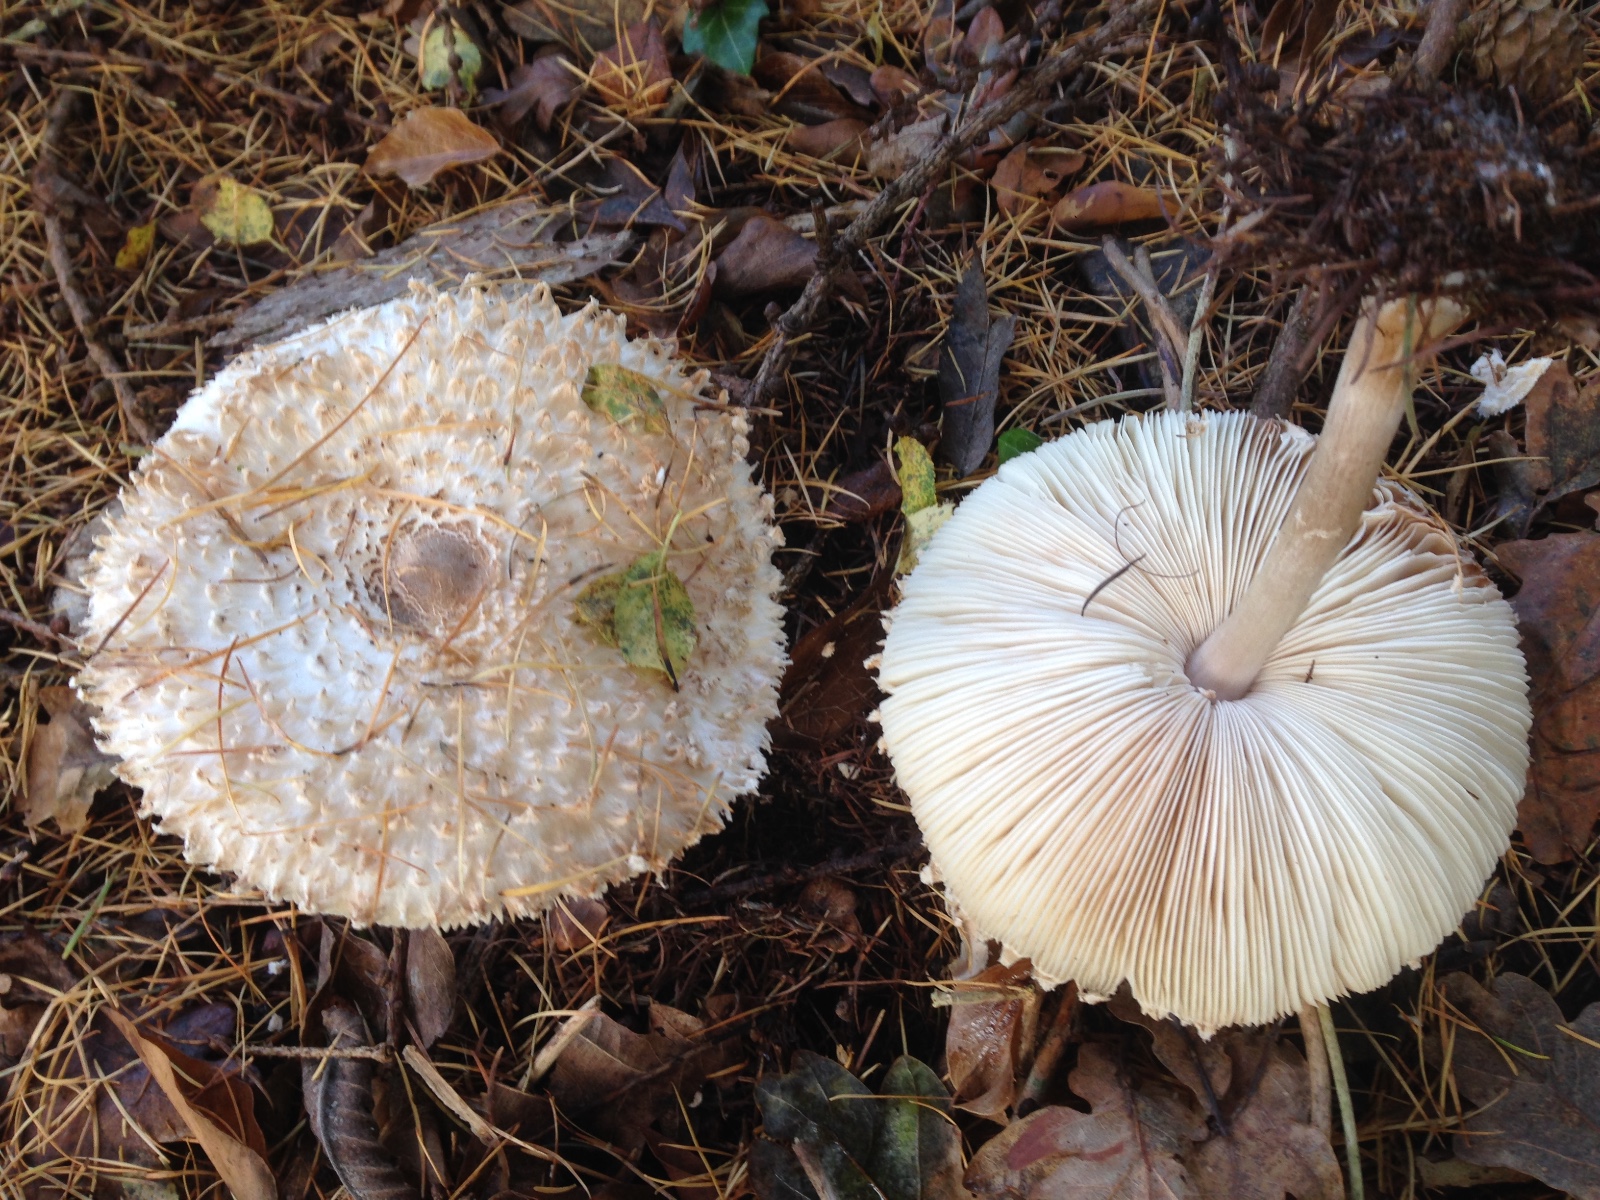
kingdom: Fungi
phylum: Basidiomycota
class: Agaricomycetes
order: Agaricales
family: Agaricaceae
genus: Leucoagaricus
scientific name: Leucoagaricus nympharum
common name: gran-silkehat
